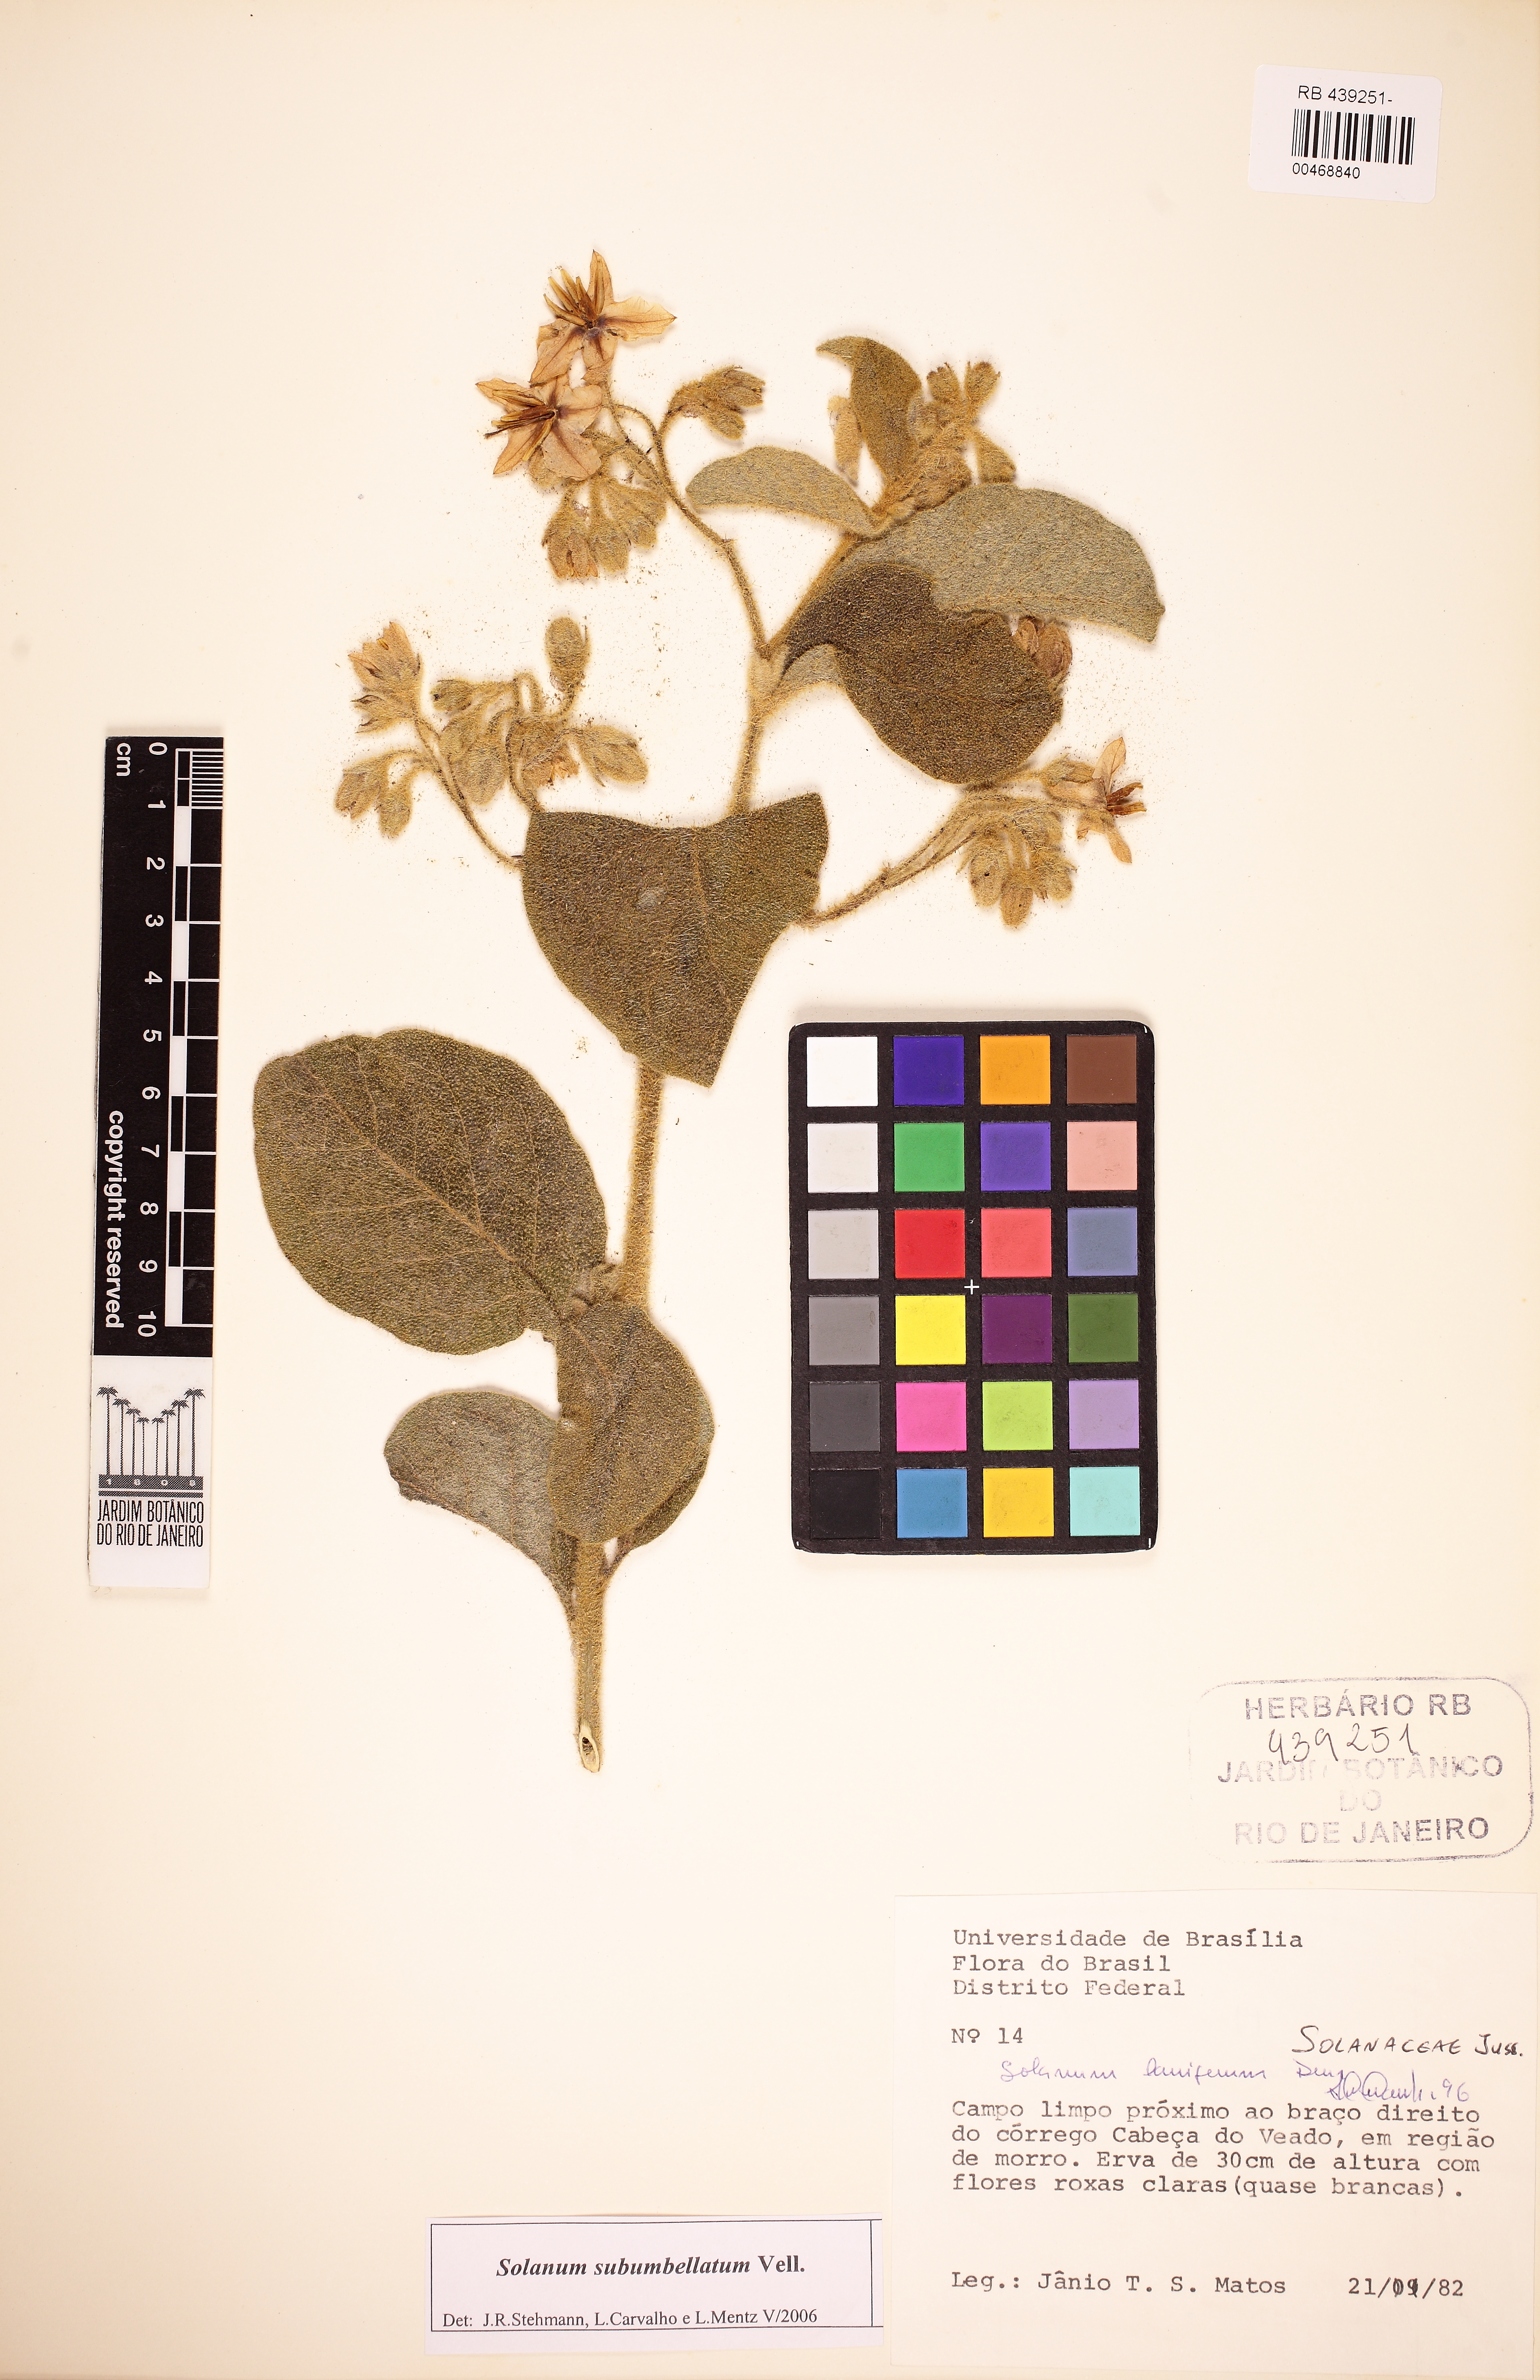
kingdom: Plantae
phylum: Tracheophyta
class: Magnoliopsida
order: Solanales
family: Solanaceae
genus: Solanum
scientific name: Solanum subumbellatum
